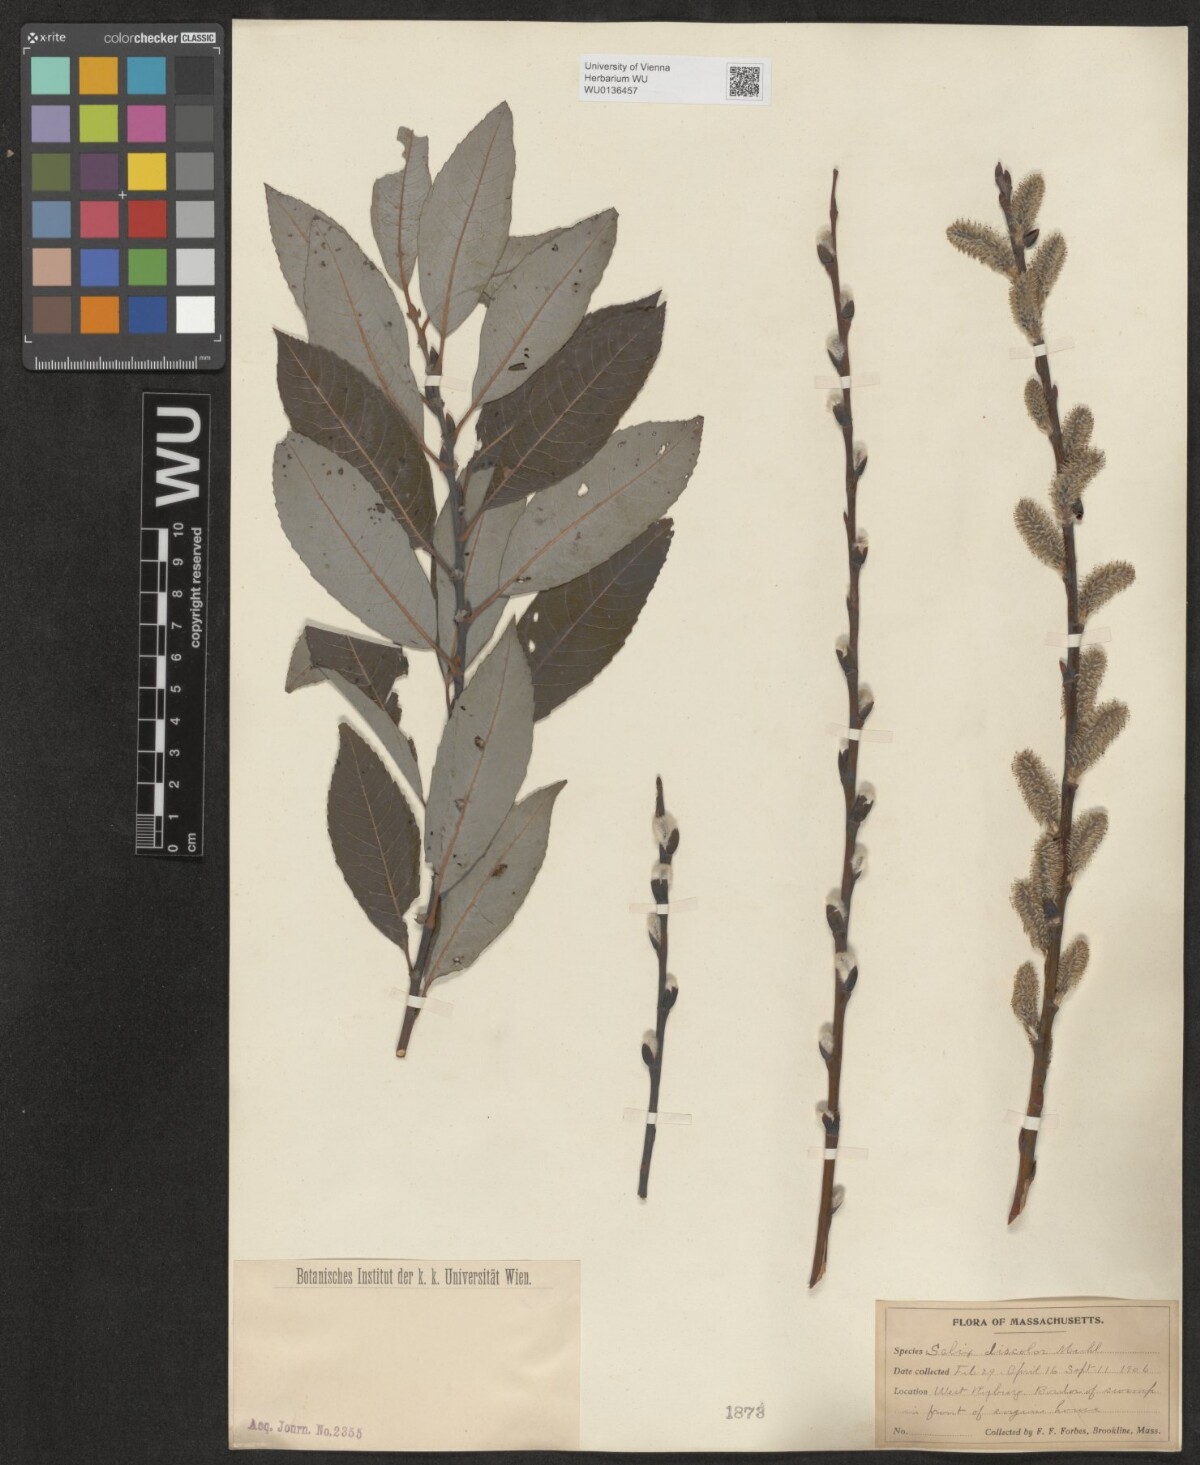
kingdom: Plantae
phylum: Tracheophyta
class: Magnoliopsida
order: Malpighiales
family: Salicaceae
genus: Salix
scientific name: Salix discolor
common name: Glaucous willow
